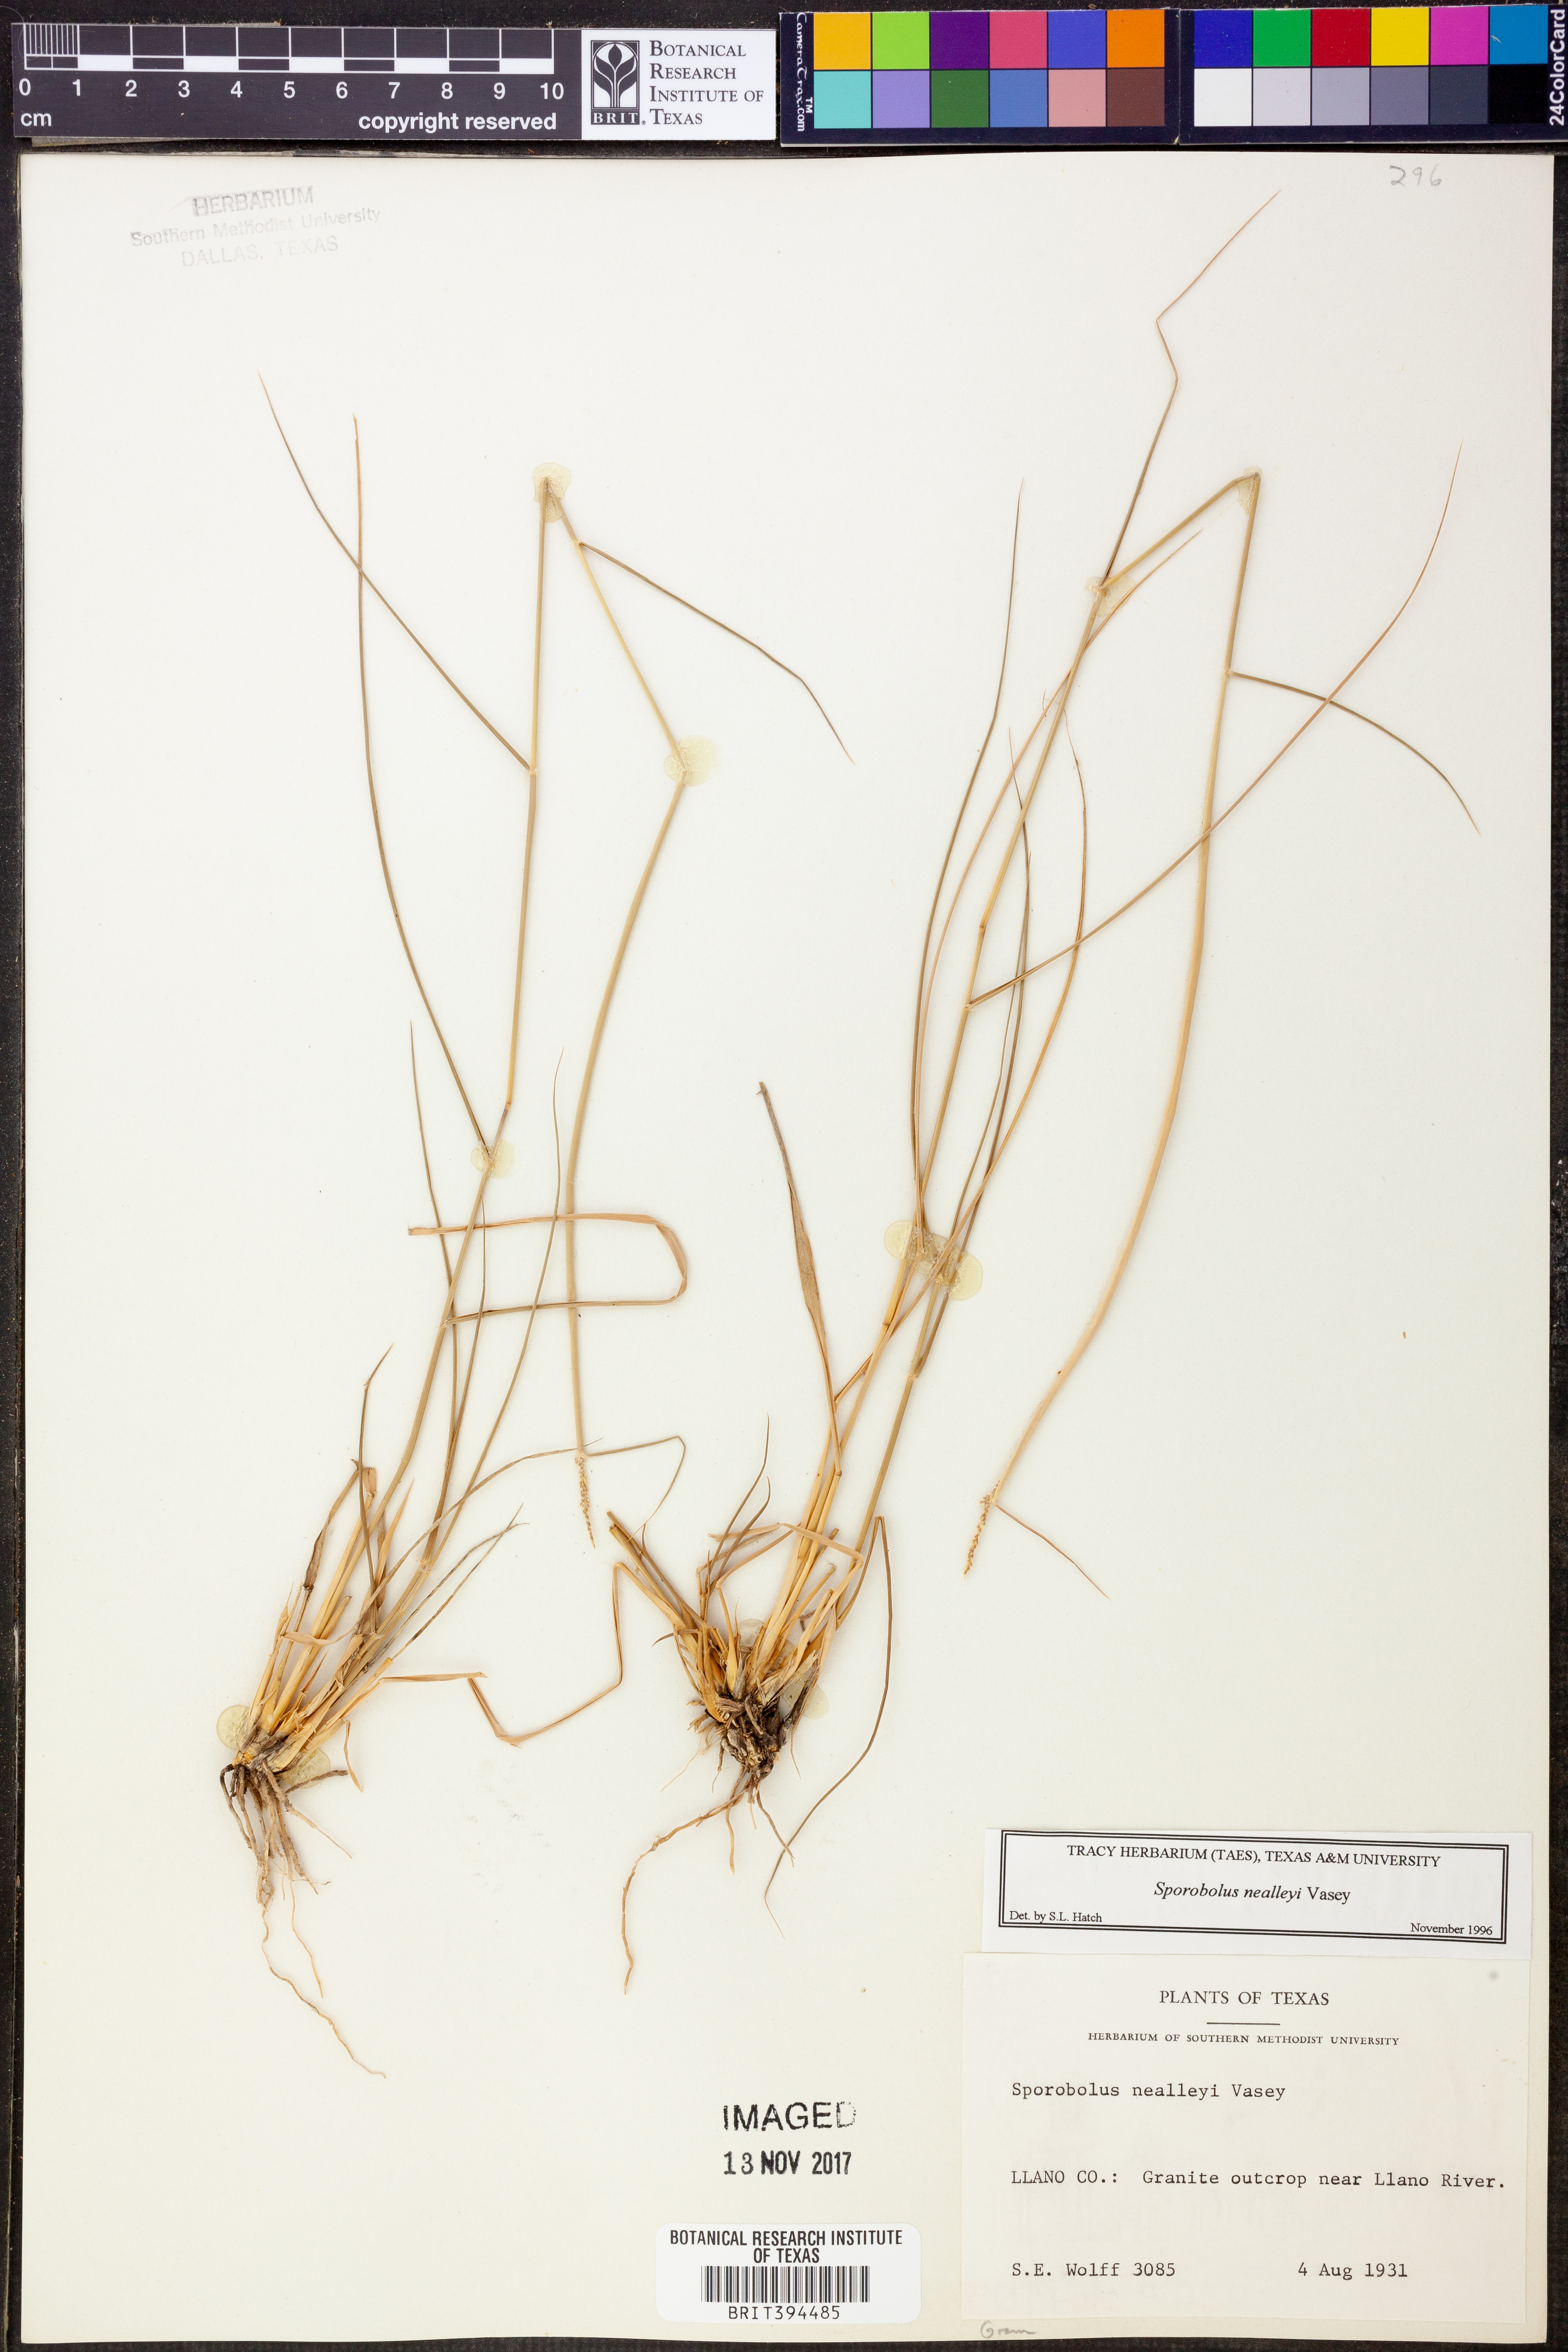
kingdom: Plantae
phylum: Tracheophyta
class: Liliopsida
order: Poales
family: Poaceae
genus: Sporobolus
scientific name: Sporobolus nealleyi
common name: Gyp grass
